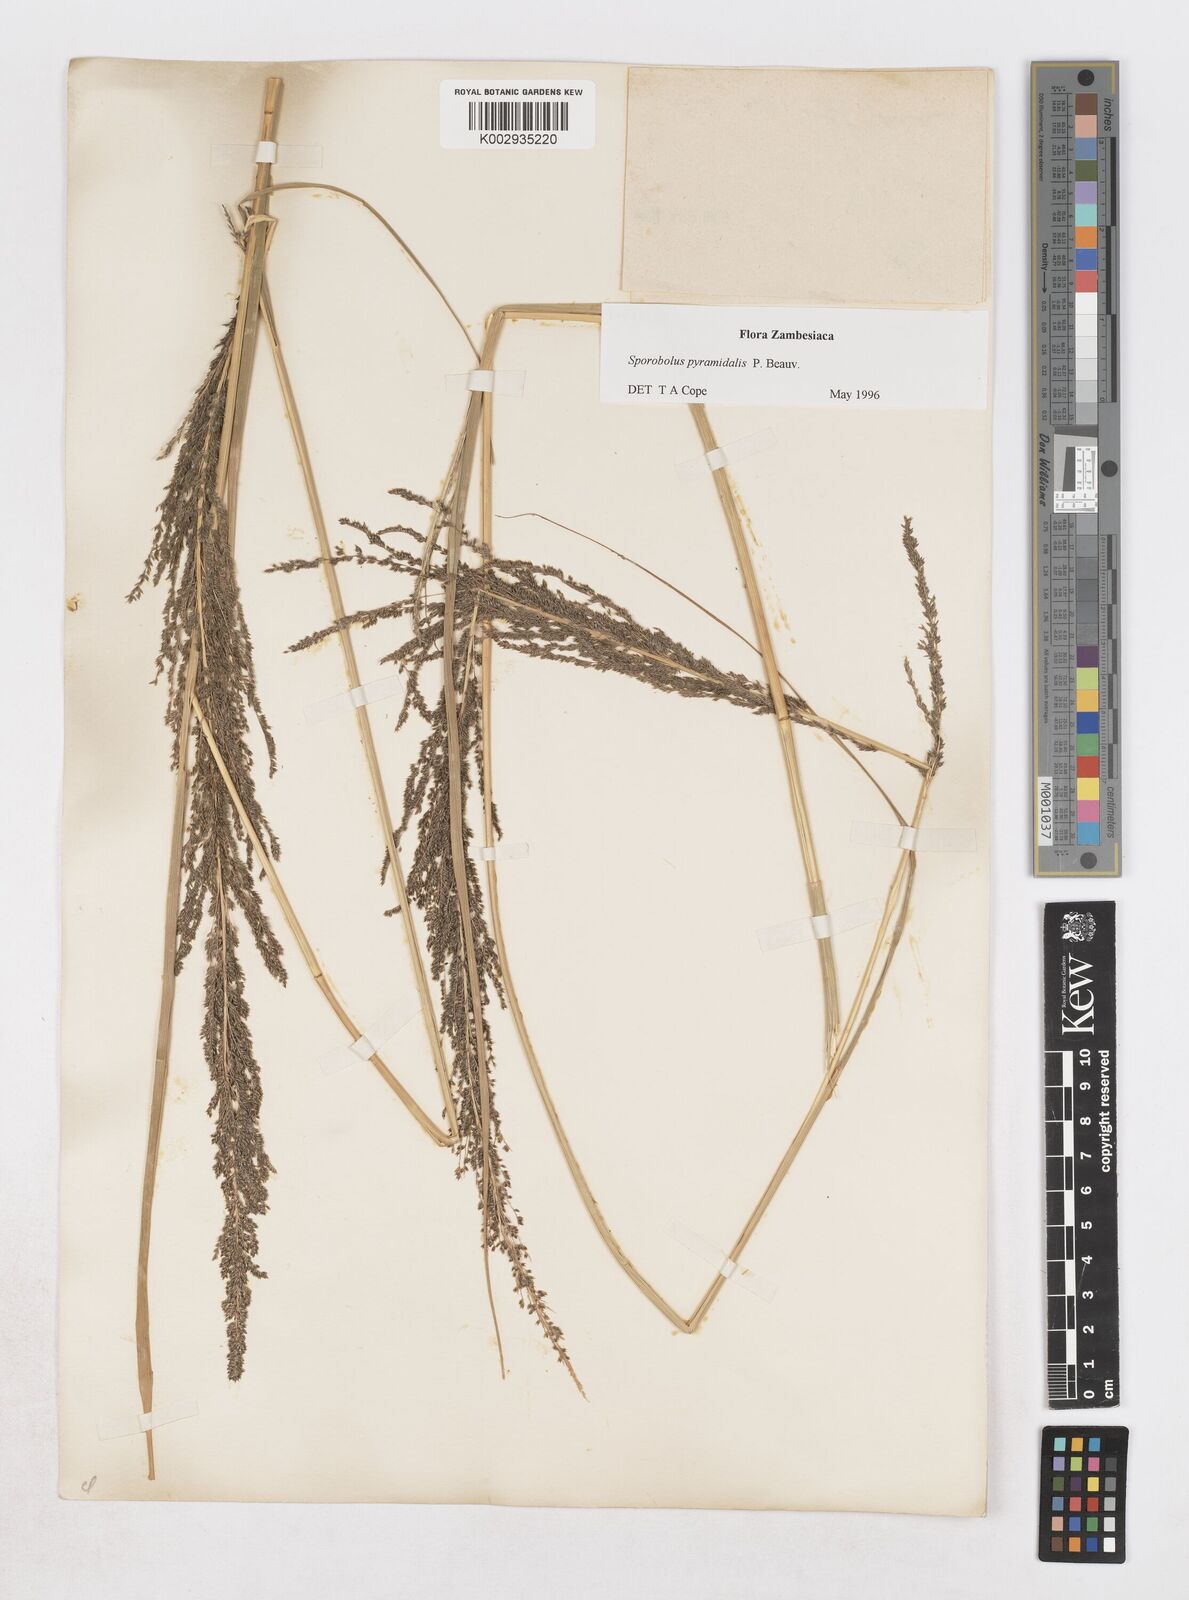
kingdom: Plantae
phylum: Tracheophyta
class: Liliopsida
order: Poales
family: Poaceae
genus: Sporobolus
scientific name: Sporobolus pyramidalis
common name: West indian dropseed
